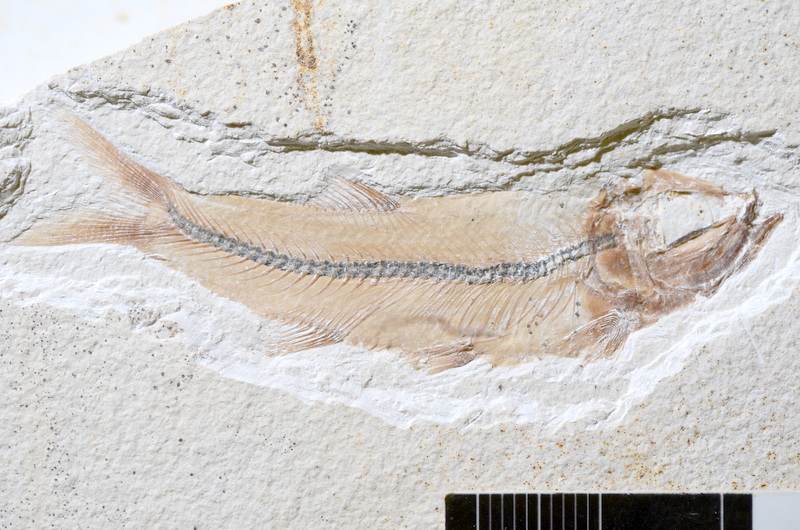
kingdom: Animalia
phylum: Chordata
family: Ascalaboidae
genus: Ebertichthys
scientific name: Ebertichthys ettlingensis
